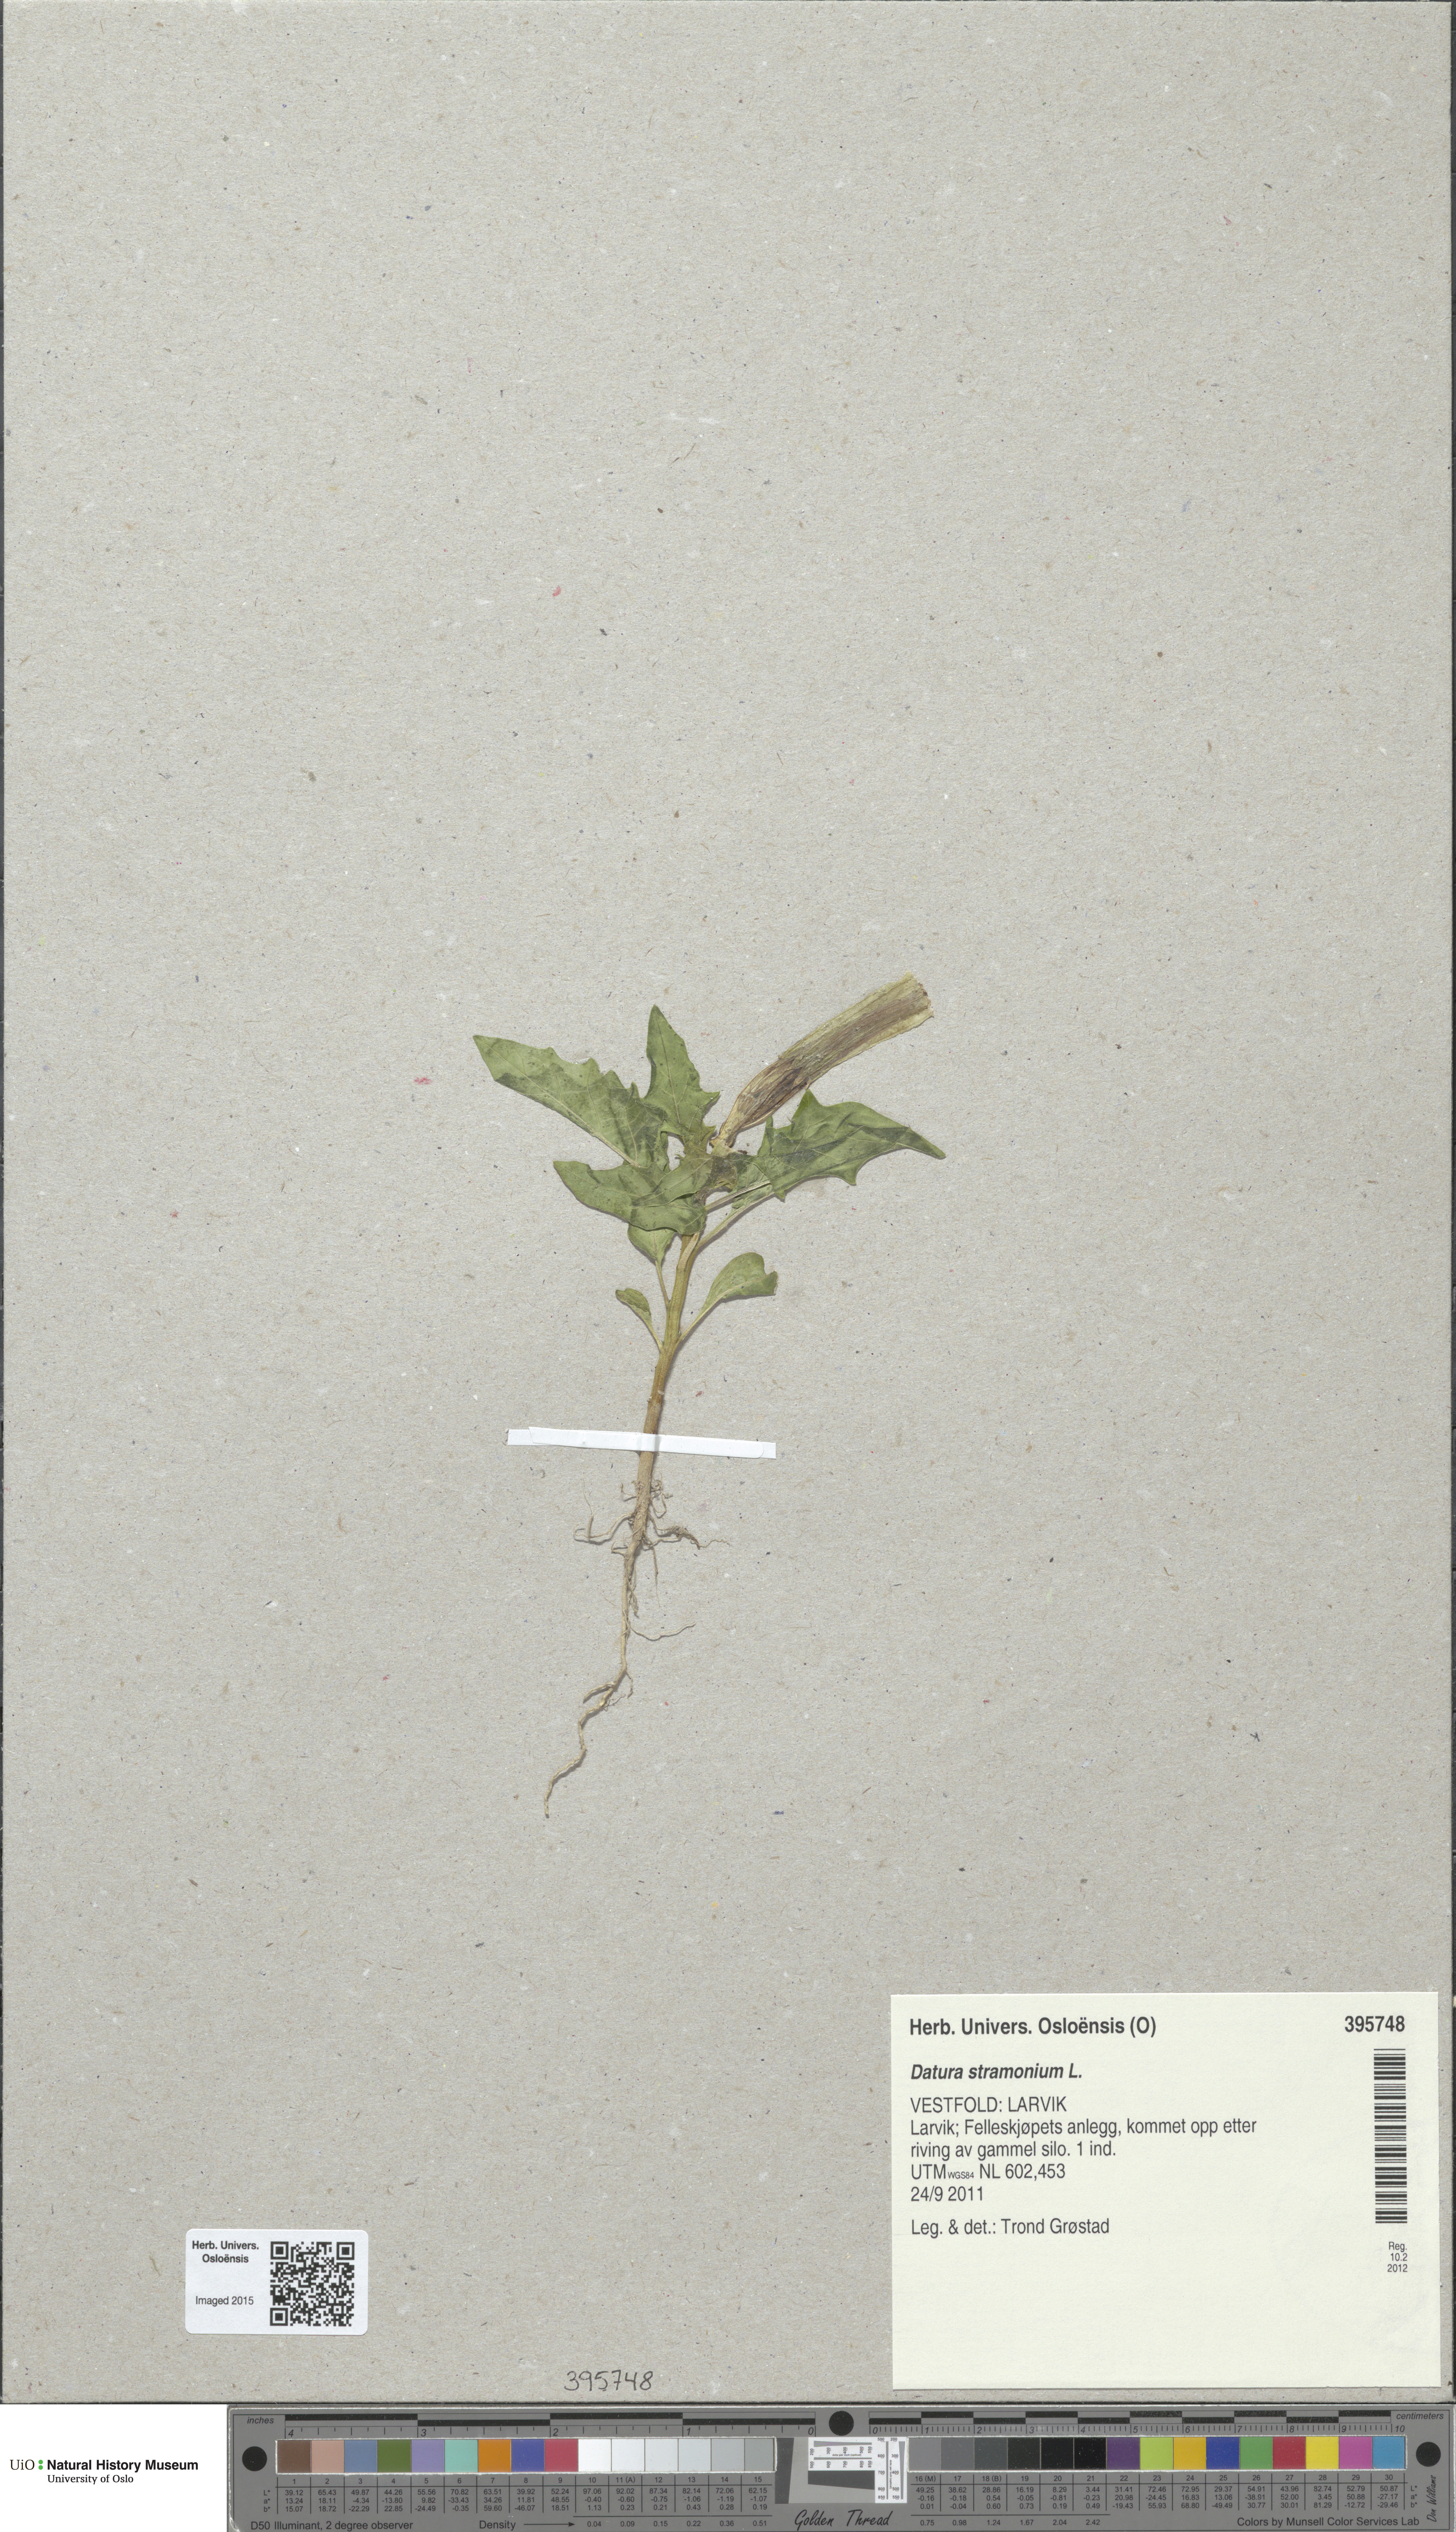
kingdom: Plantae
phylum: Tracheophyta
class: Magnoliopsida
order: Solanales
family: Solanaceae
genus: Datura
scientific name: Datura stramonium
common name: Thorn-apple
